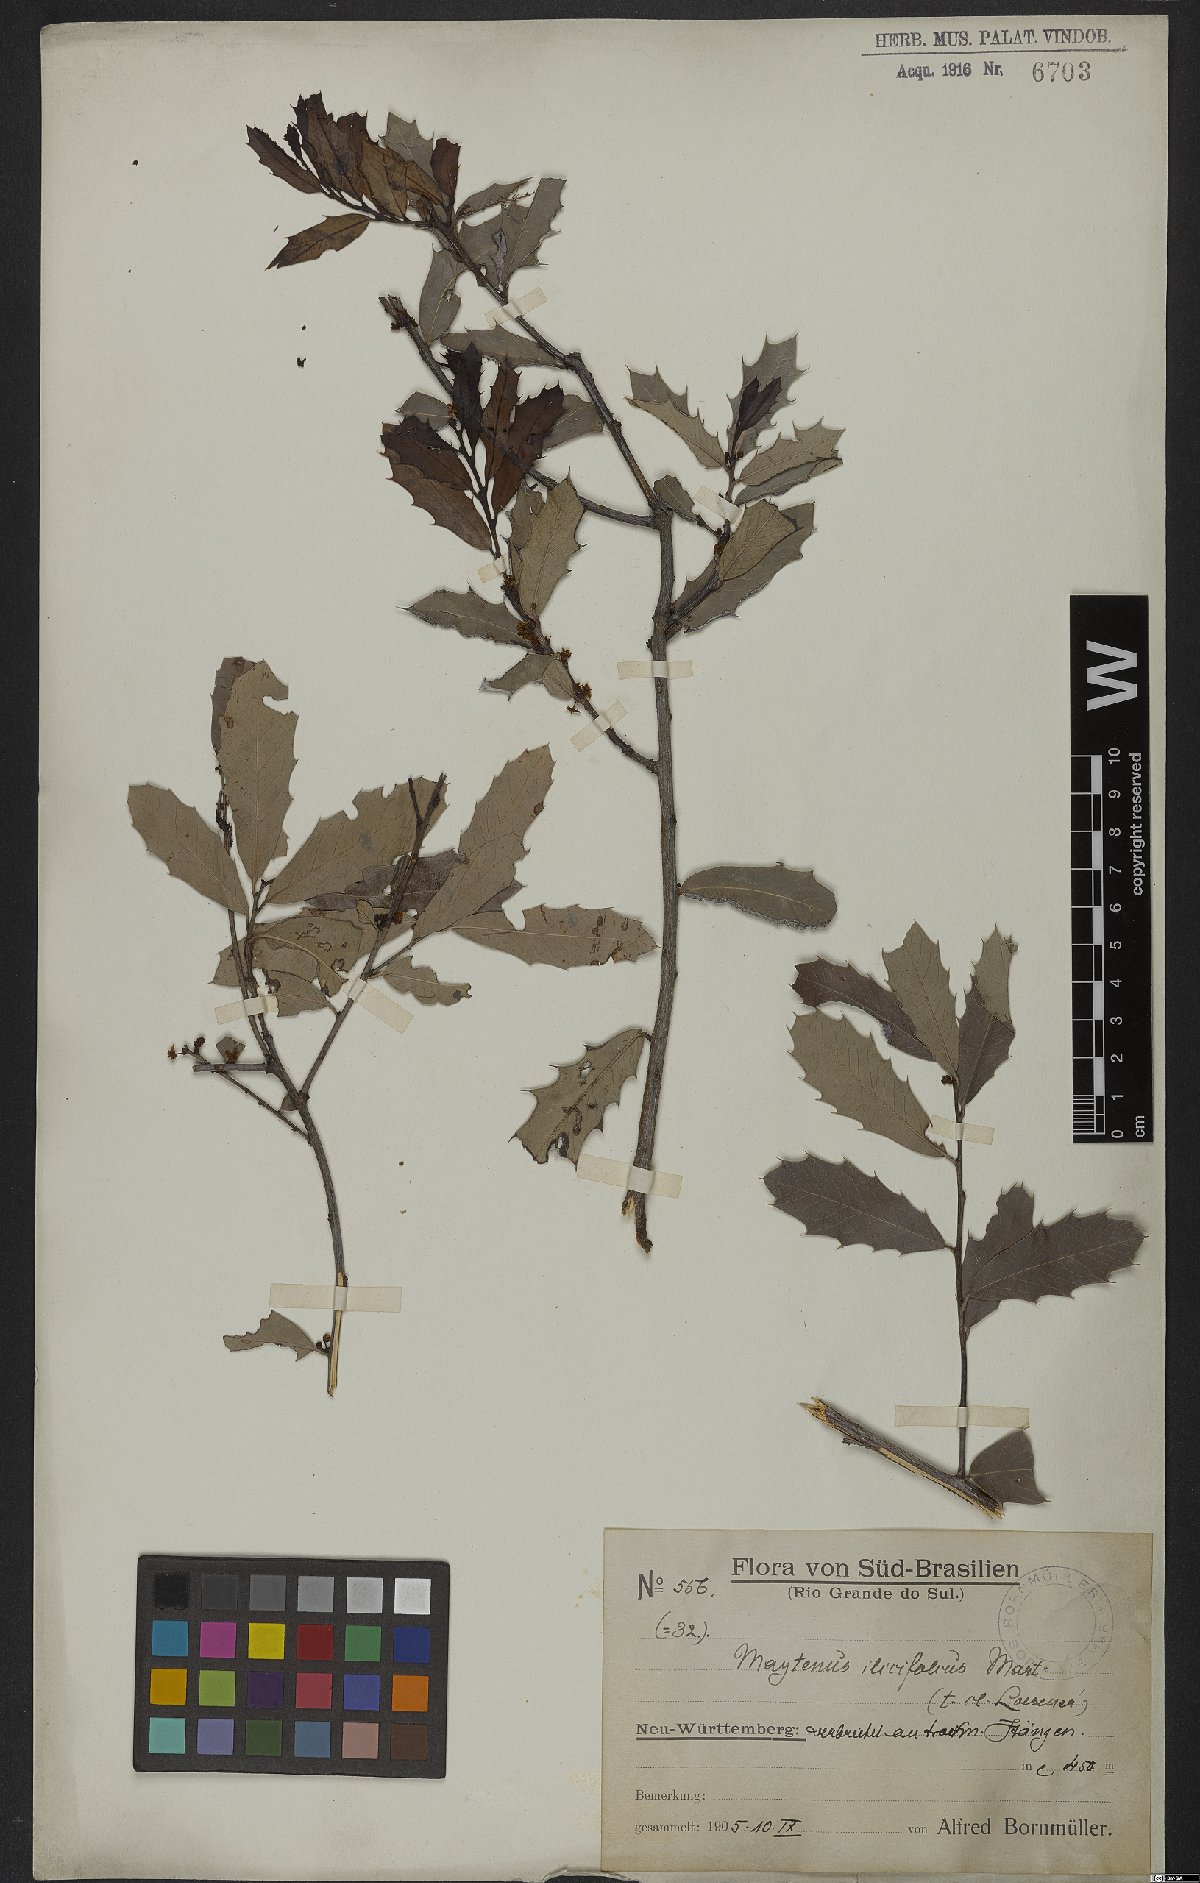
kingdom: Plantae
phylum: Tracheophyta
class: Magnoliopsida
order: Celastrales
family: Celastraceae
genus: Monteverdia
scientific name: Monteverdia ilicifolia
